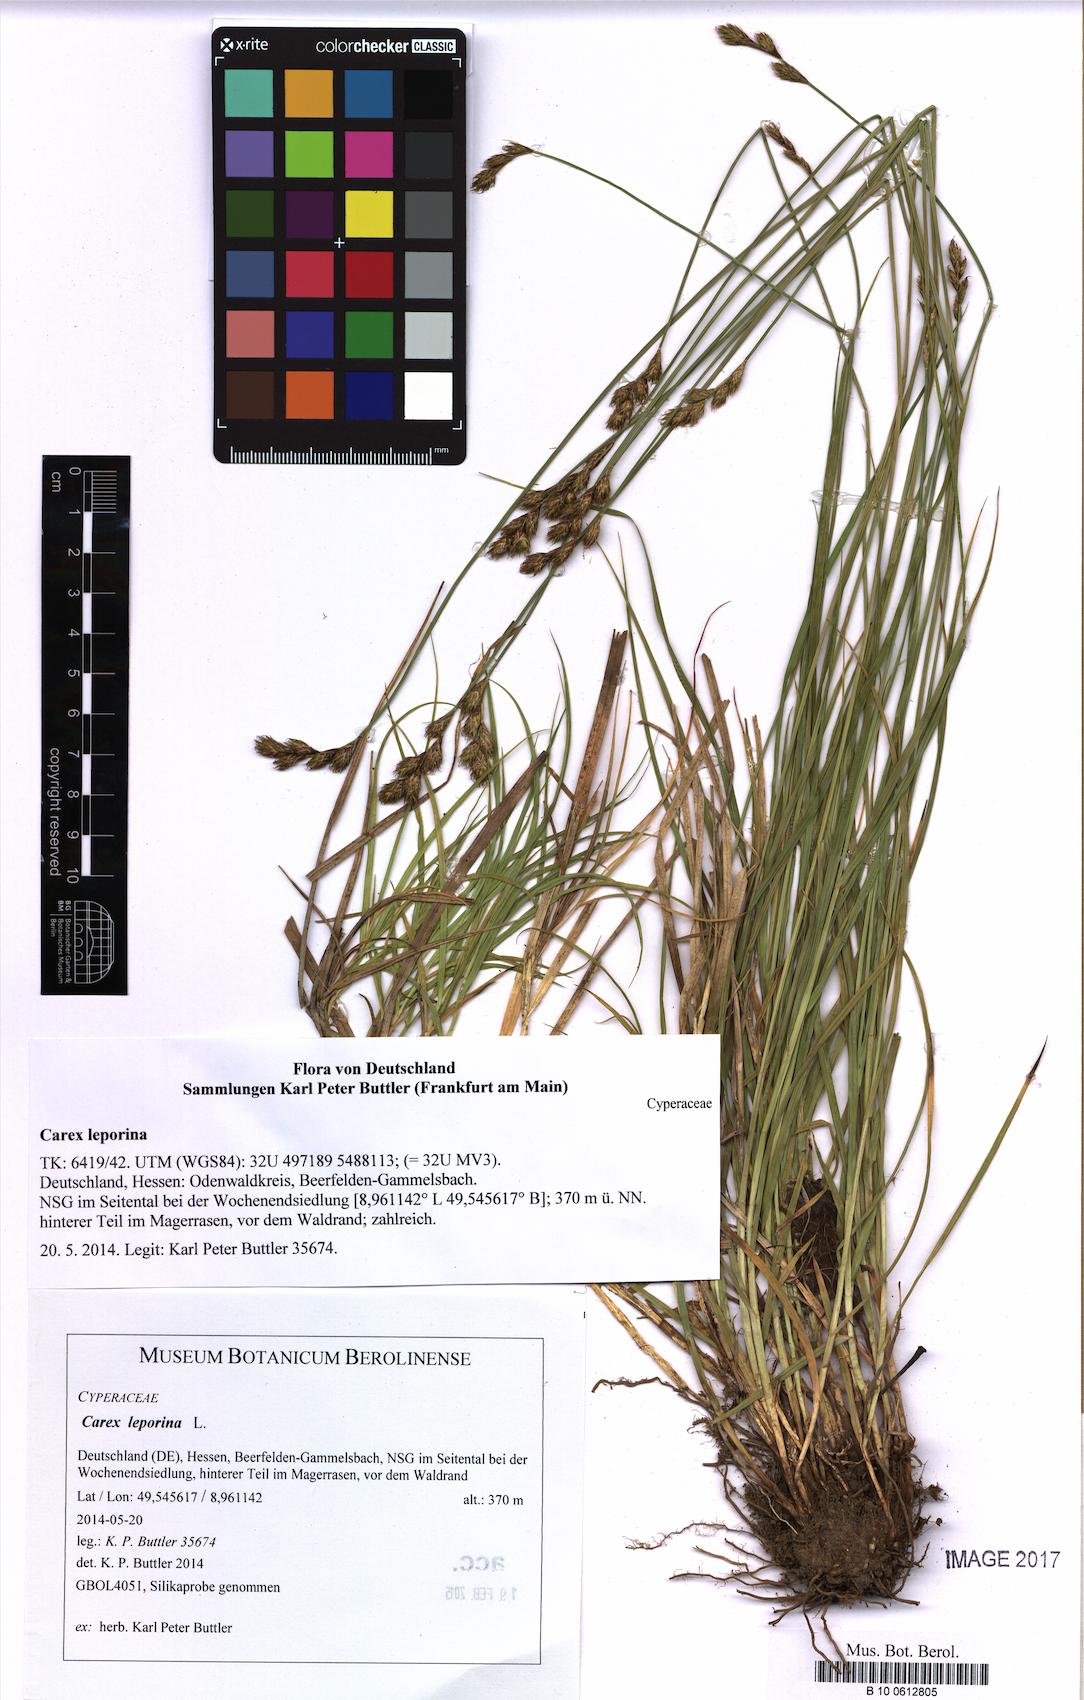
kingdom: Plantae
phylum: Tracheophyta
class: Liliopsida
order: Poales
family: Cyperaceae
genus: Carex
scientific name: Carex leporina
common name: Oval sedge
